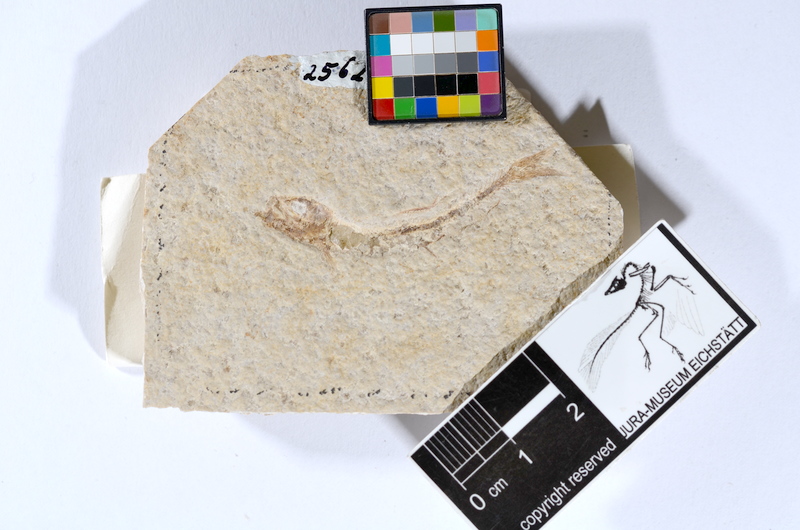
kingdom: Animalia
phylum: Chordata
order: Salmoniformes
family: Orthogonikleithridae
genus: Leptolepides
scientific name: Leptolepides sprattiformis
